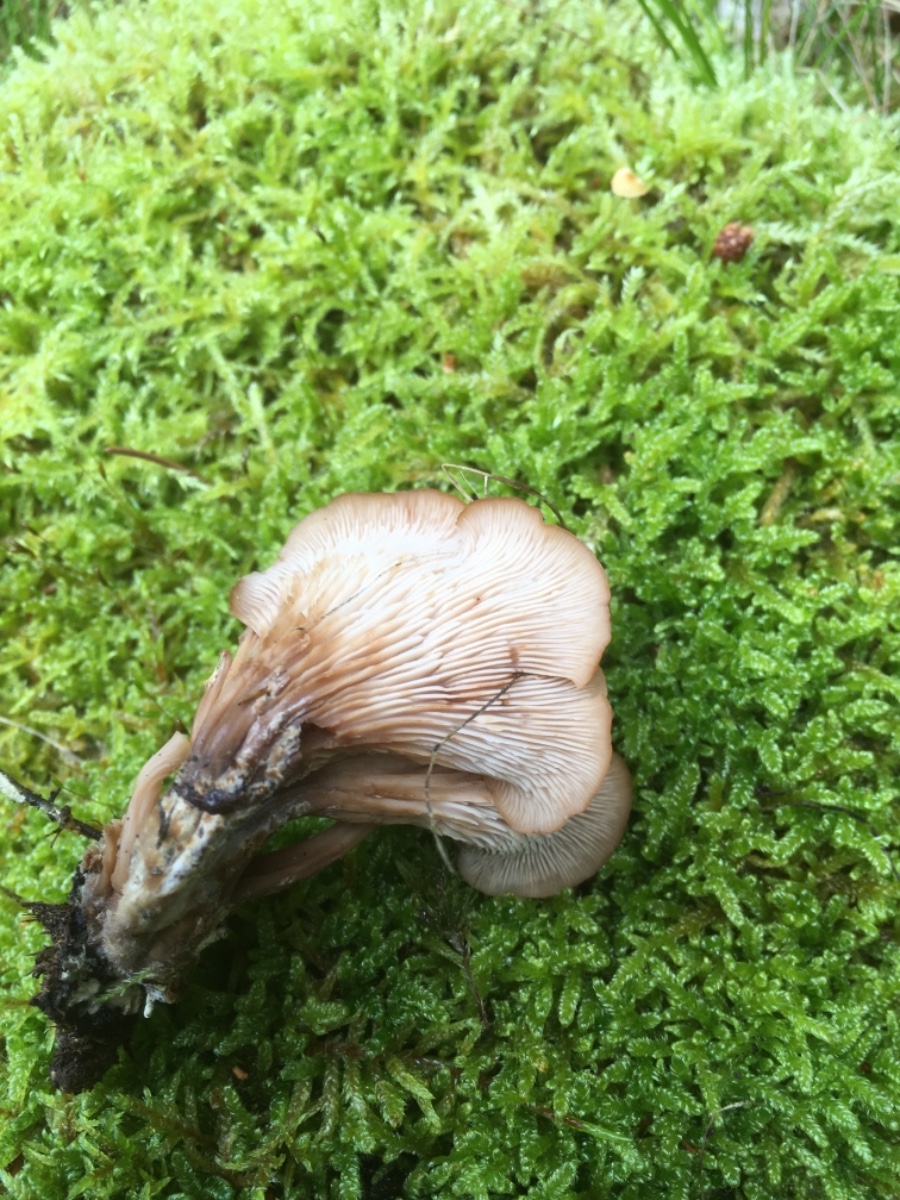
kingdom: Fungi
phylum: Basidiomycota
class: Agaricomycetes
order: Russulales
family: Auriscalpiaceae
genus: Lentinellus
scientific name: Lentinellus cochleatus
